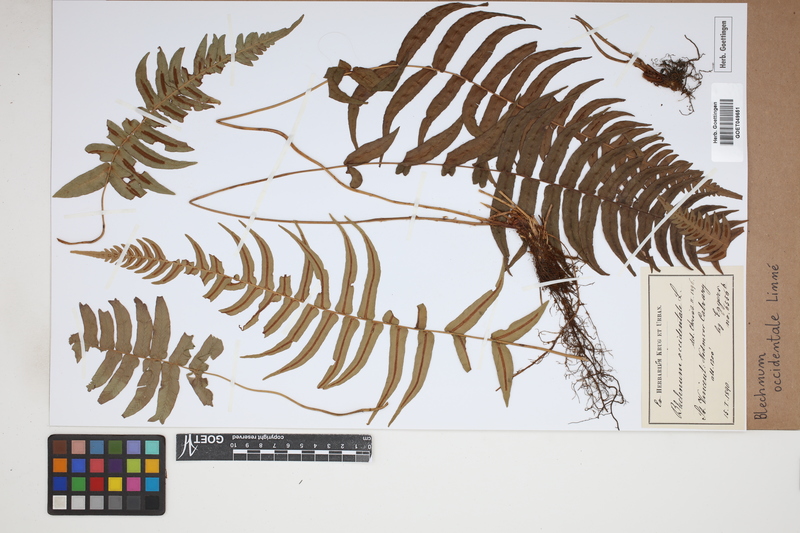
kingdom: Plantae
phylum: Tracheophyta
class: Polypodiopsida
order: Polypodiales
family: Blechnaceae
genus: Blechnum
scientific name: Blechnum occidentale
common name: Hammock fern
